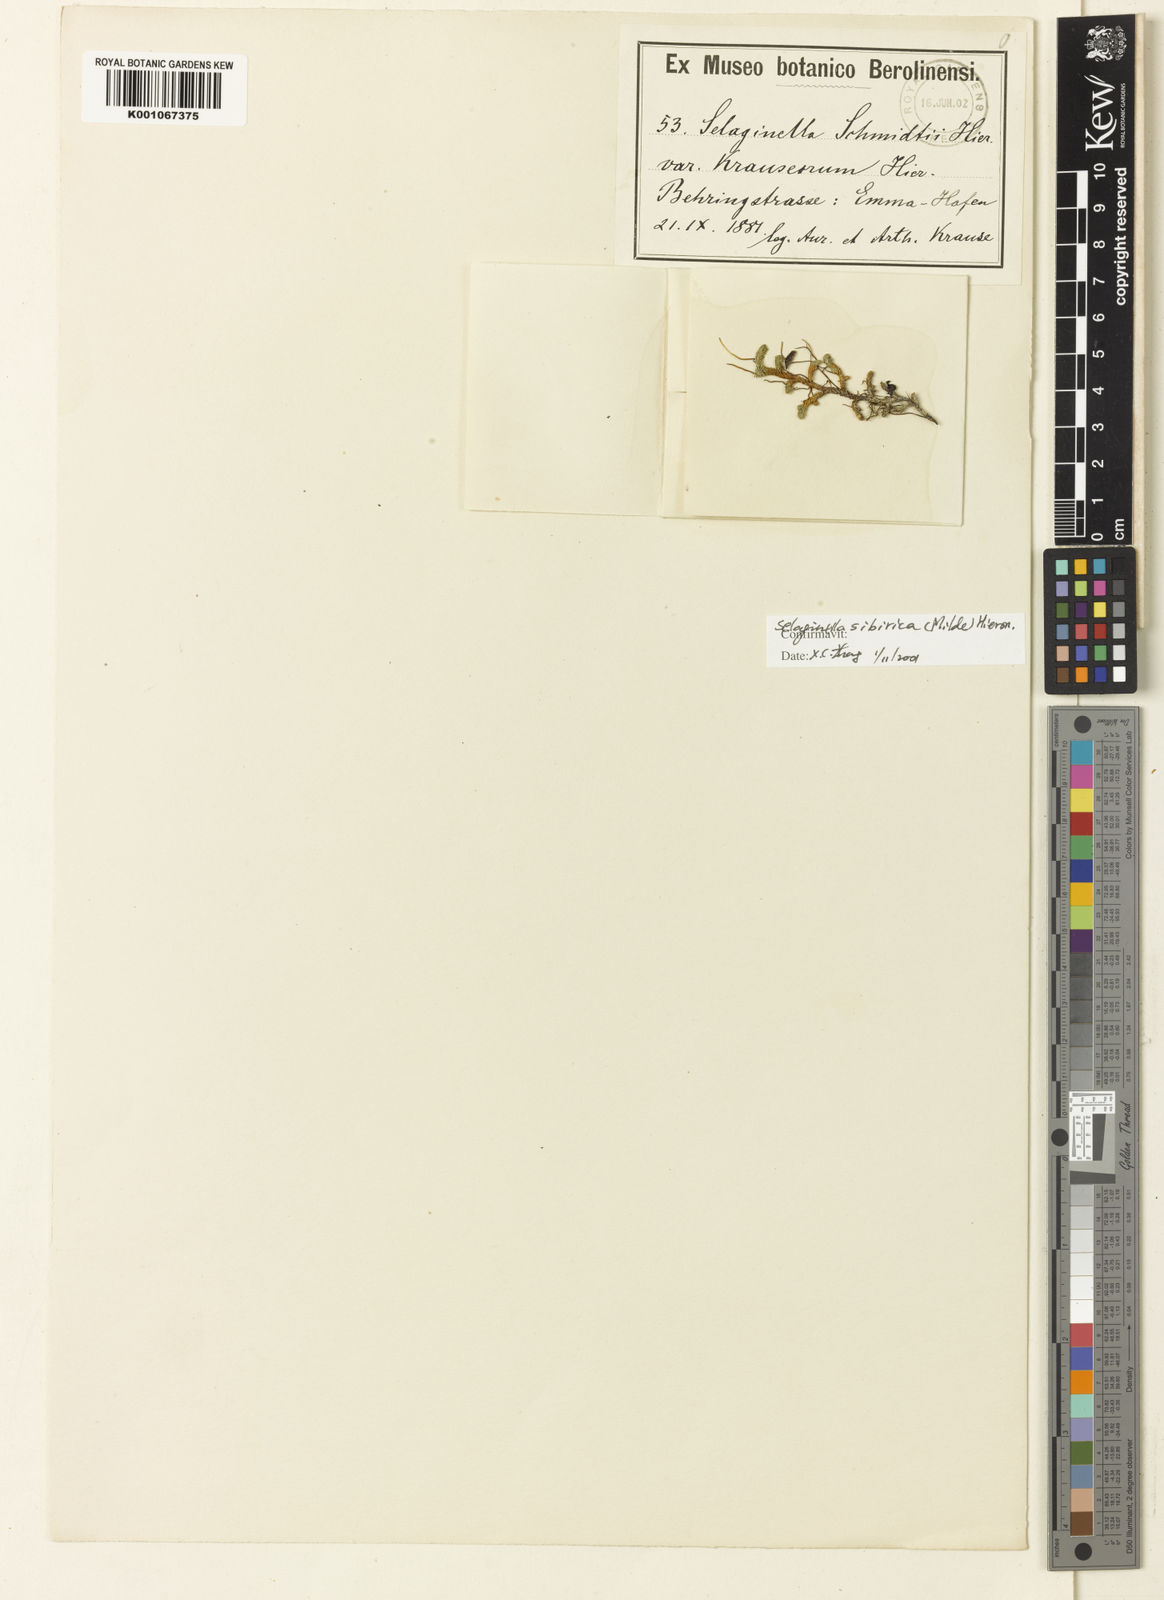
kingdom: Plantae
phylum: Tracheophyta
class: Lycopodiopsida
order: Selaginellales
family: Selaginellaceae
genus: Selaginella
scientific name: Selaginella sibirica
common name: Siberian spikemoss
